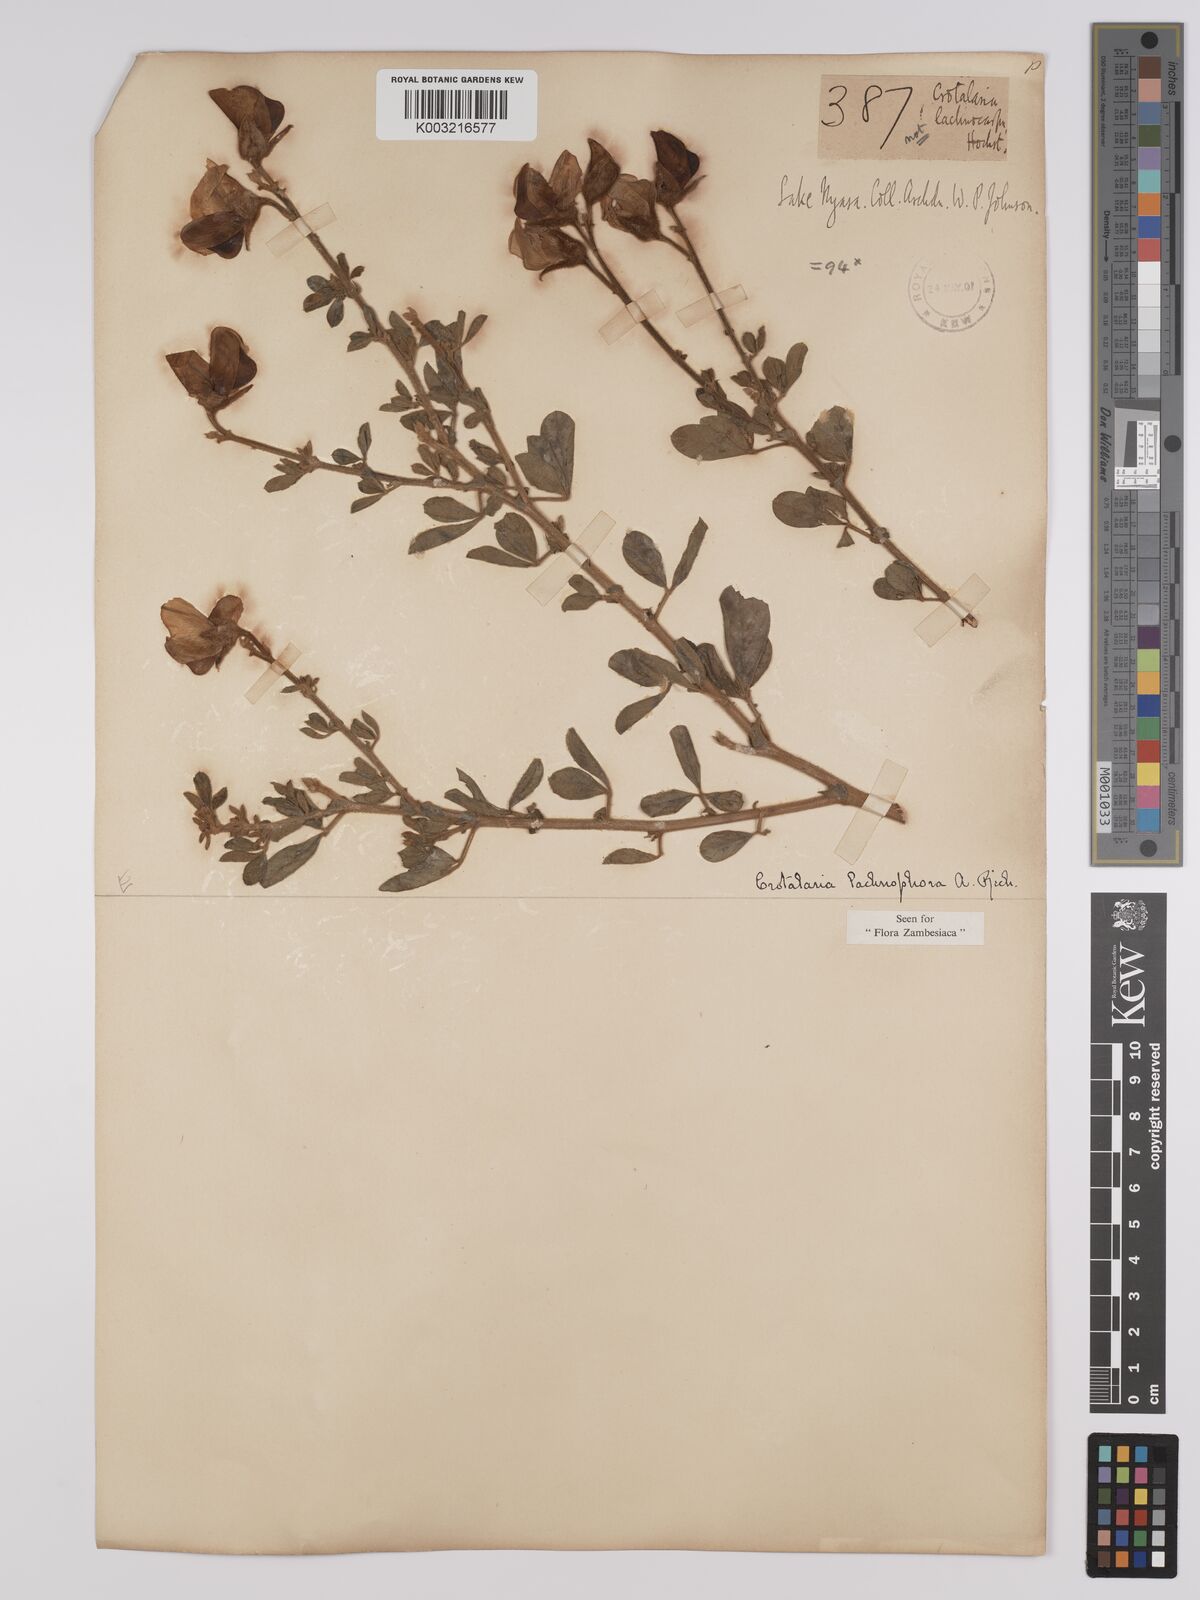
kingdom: Plantae
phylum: Tracheophyta
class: Magnoliopsida
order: Fabales
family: Fabaceae
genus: Crotalaria
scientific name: Crotalaria lachnophora
